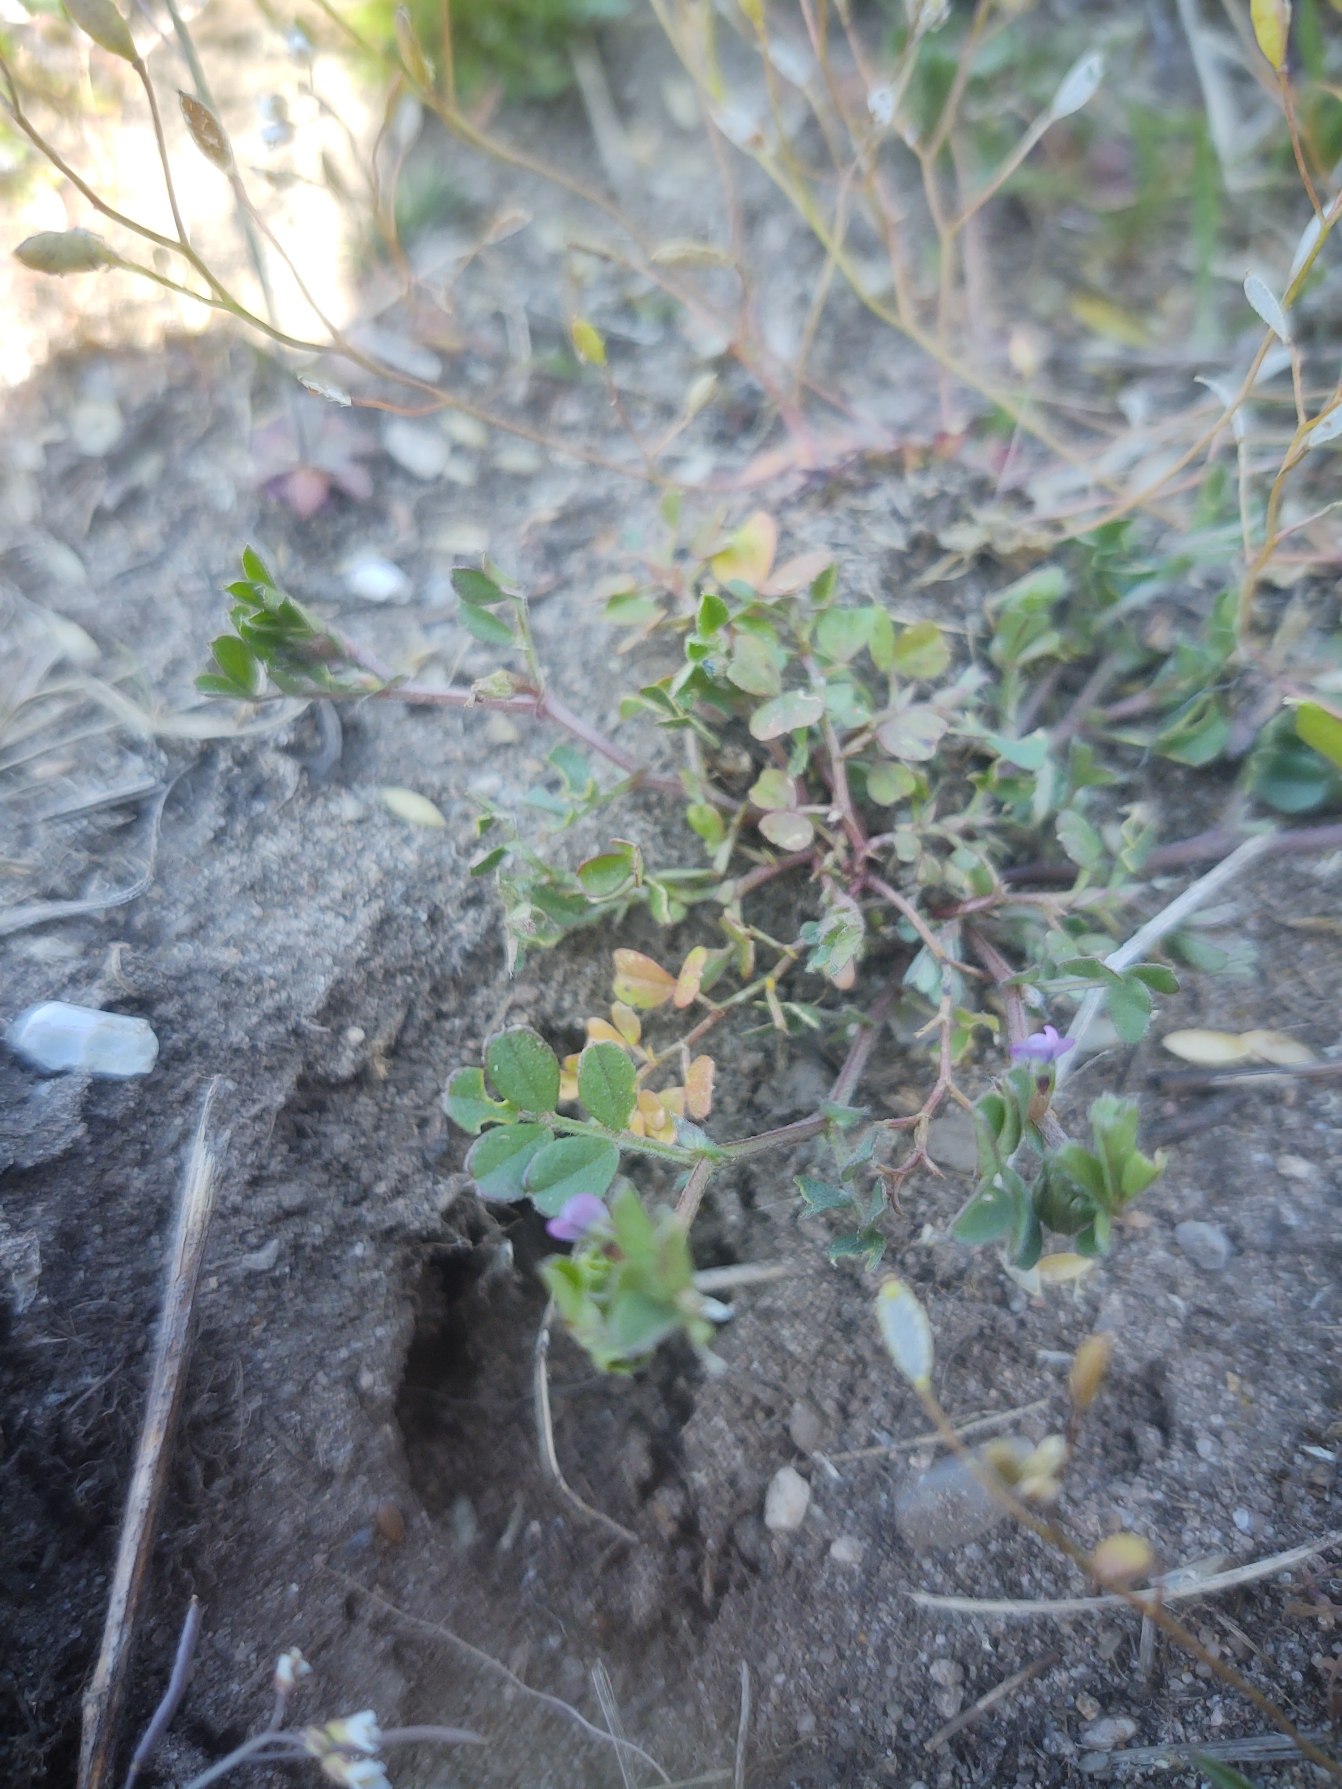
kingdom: Plantae
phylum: Tracheophyta
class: Magnoliopsida
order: Fabales
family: Fabaceae
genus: Vicia
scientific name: Vicia lathyroides
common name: Vår-vikke
